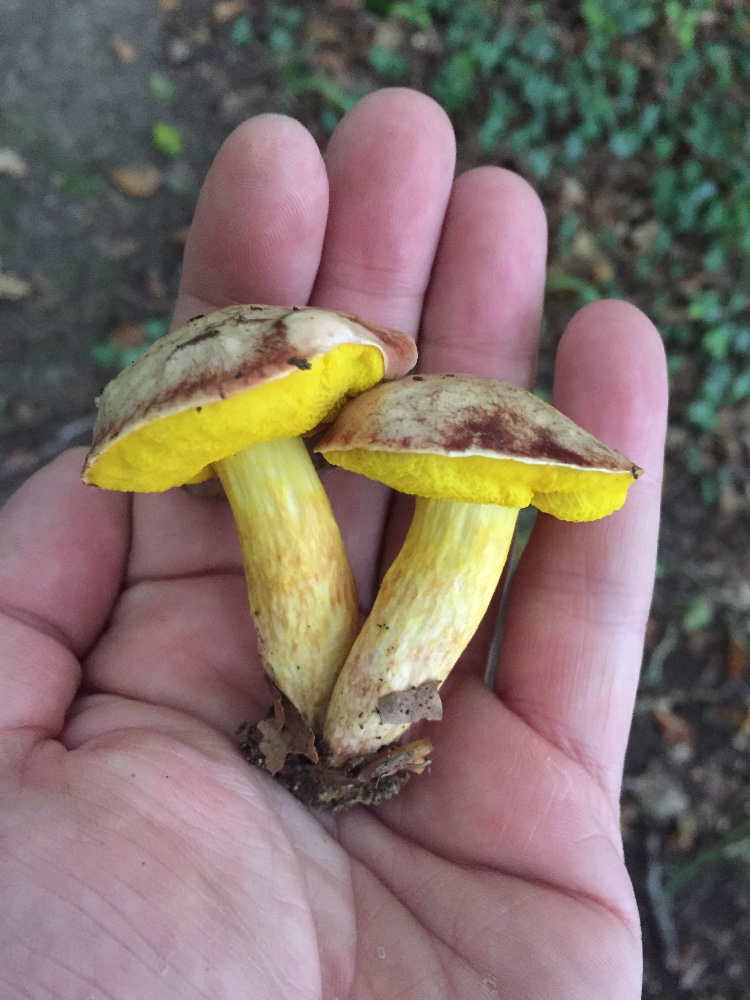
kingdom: Fungi
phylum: Basidiomycota
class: Agaricomycetes
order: Boletales
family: Boletaceae
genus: Aureoboletus
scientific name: Aureoboletus gentilis
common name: guldrørhat
